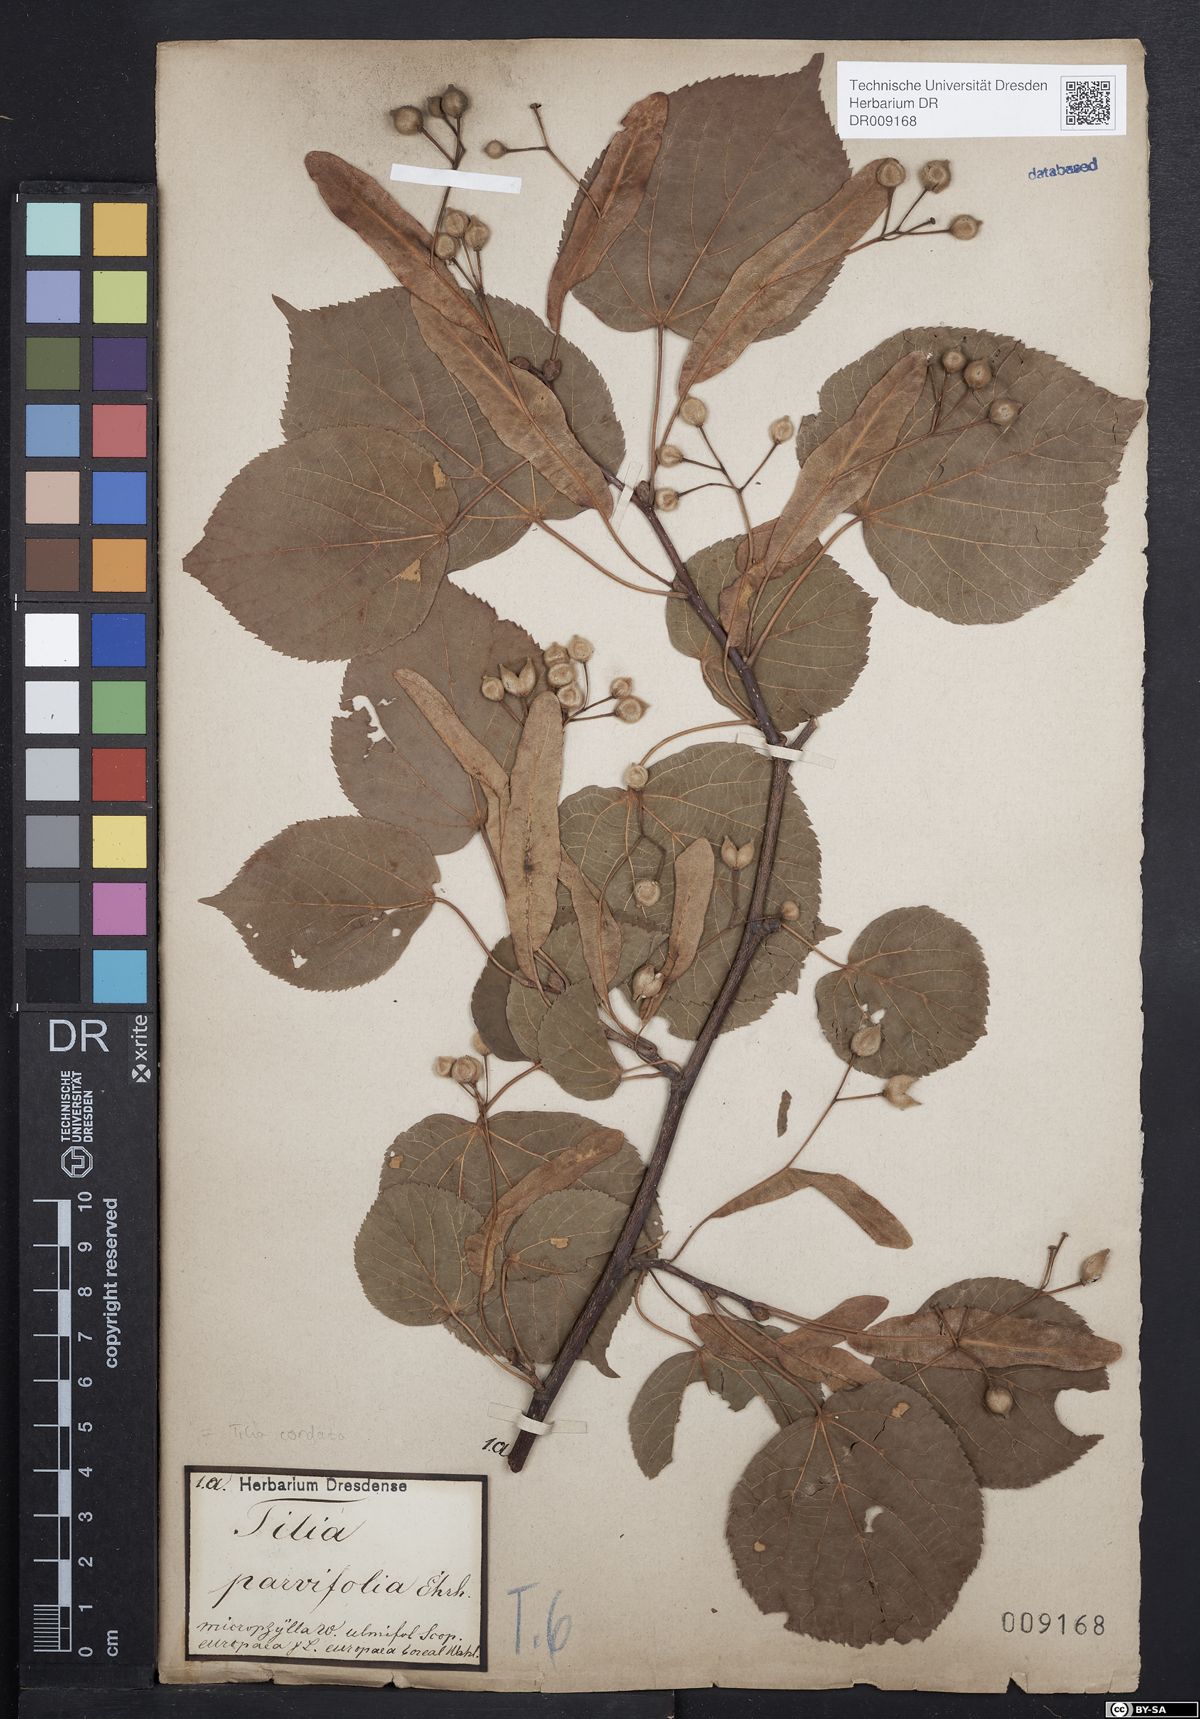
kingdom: Plantae
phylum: Tracheophyta
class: Magnoliopsida
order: Malvales
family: Malvaceae
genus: Tilia
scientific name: Tilia cordata
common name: Small-leaved lime
